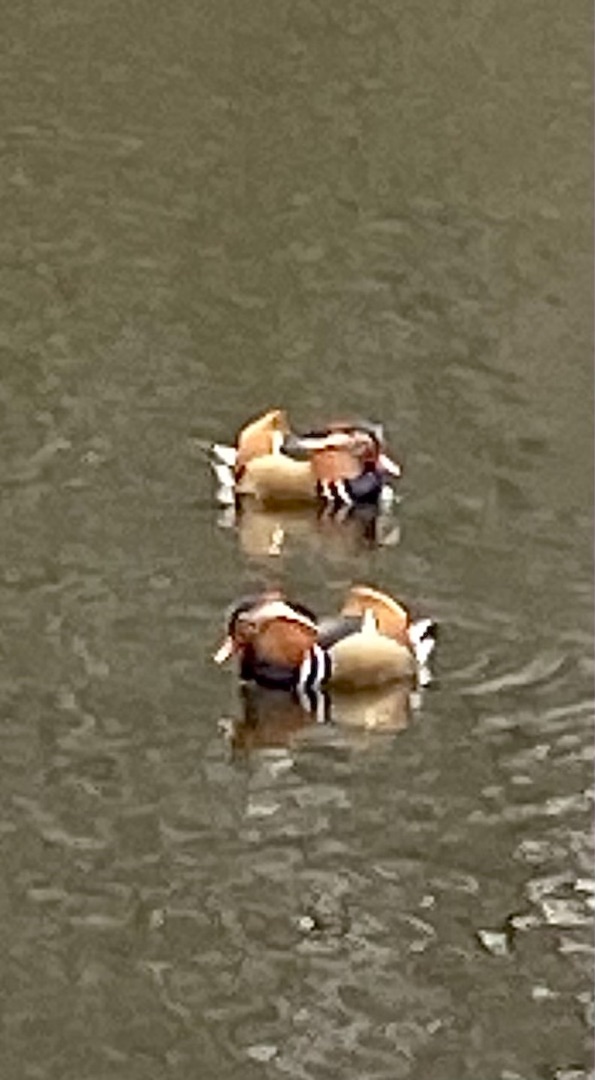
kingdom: Animalia
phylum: Chordata
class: Aves
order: Anseriformes
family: Anatidae
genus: Aix
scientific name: Aix galericulata
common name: Mandarinand
